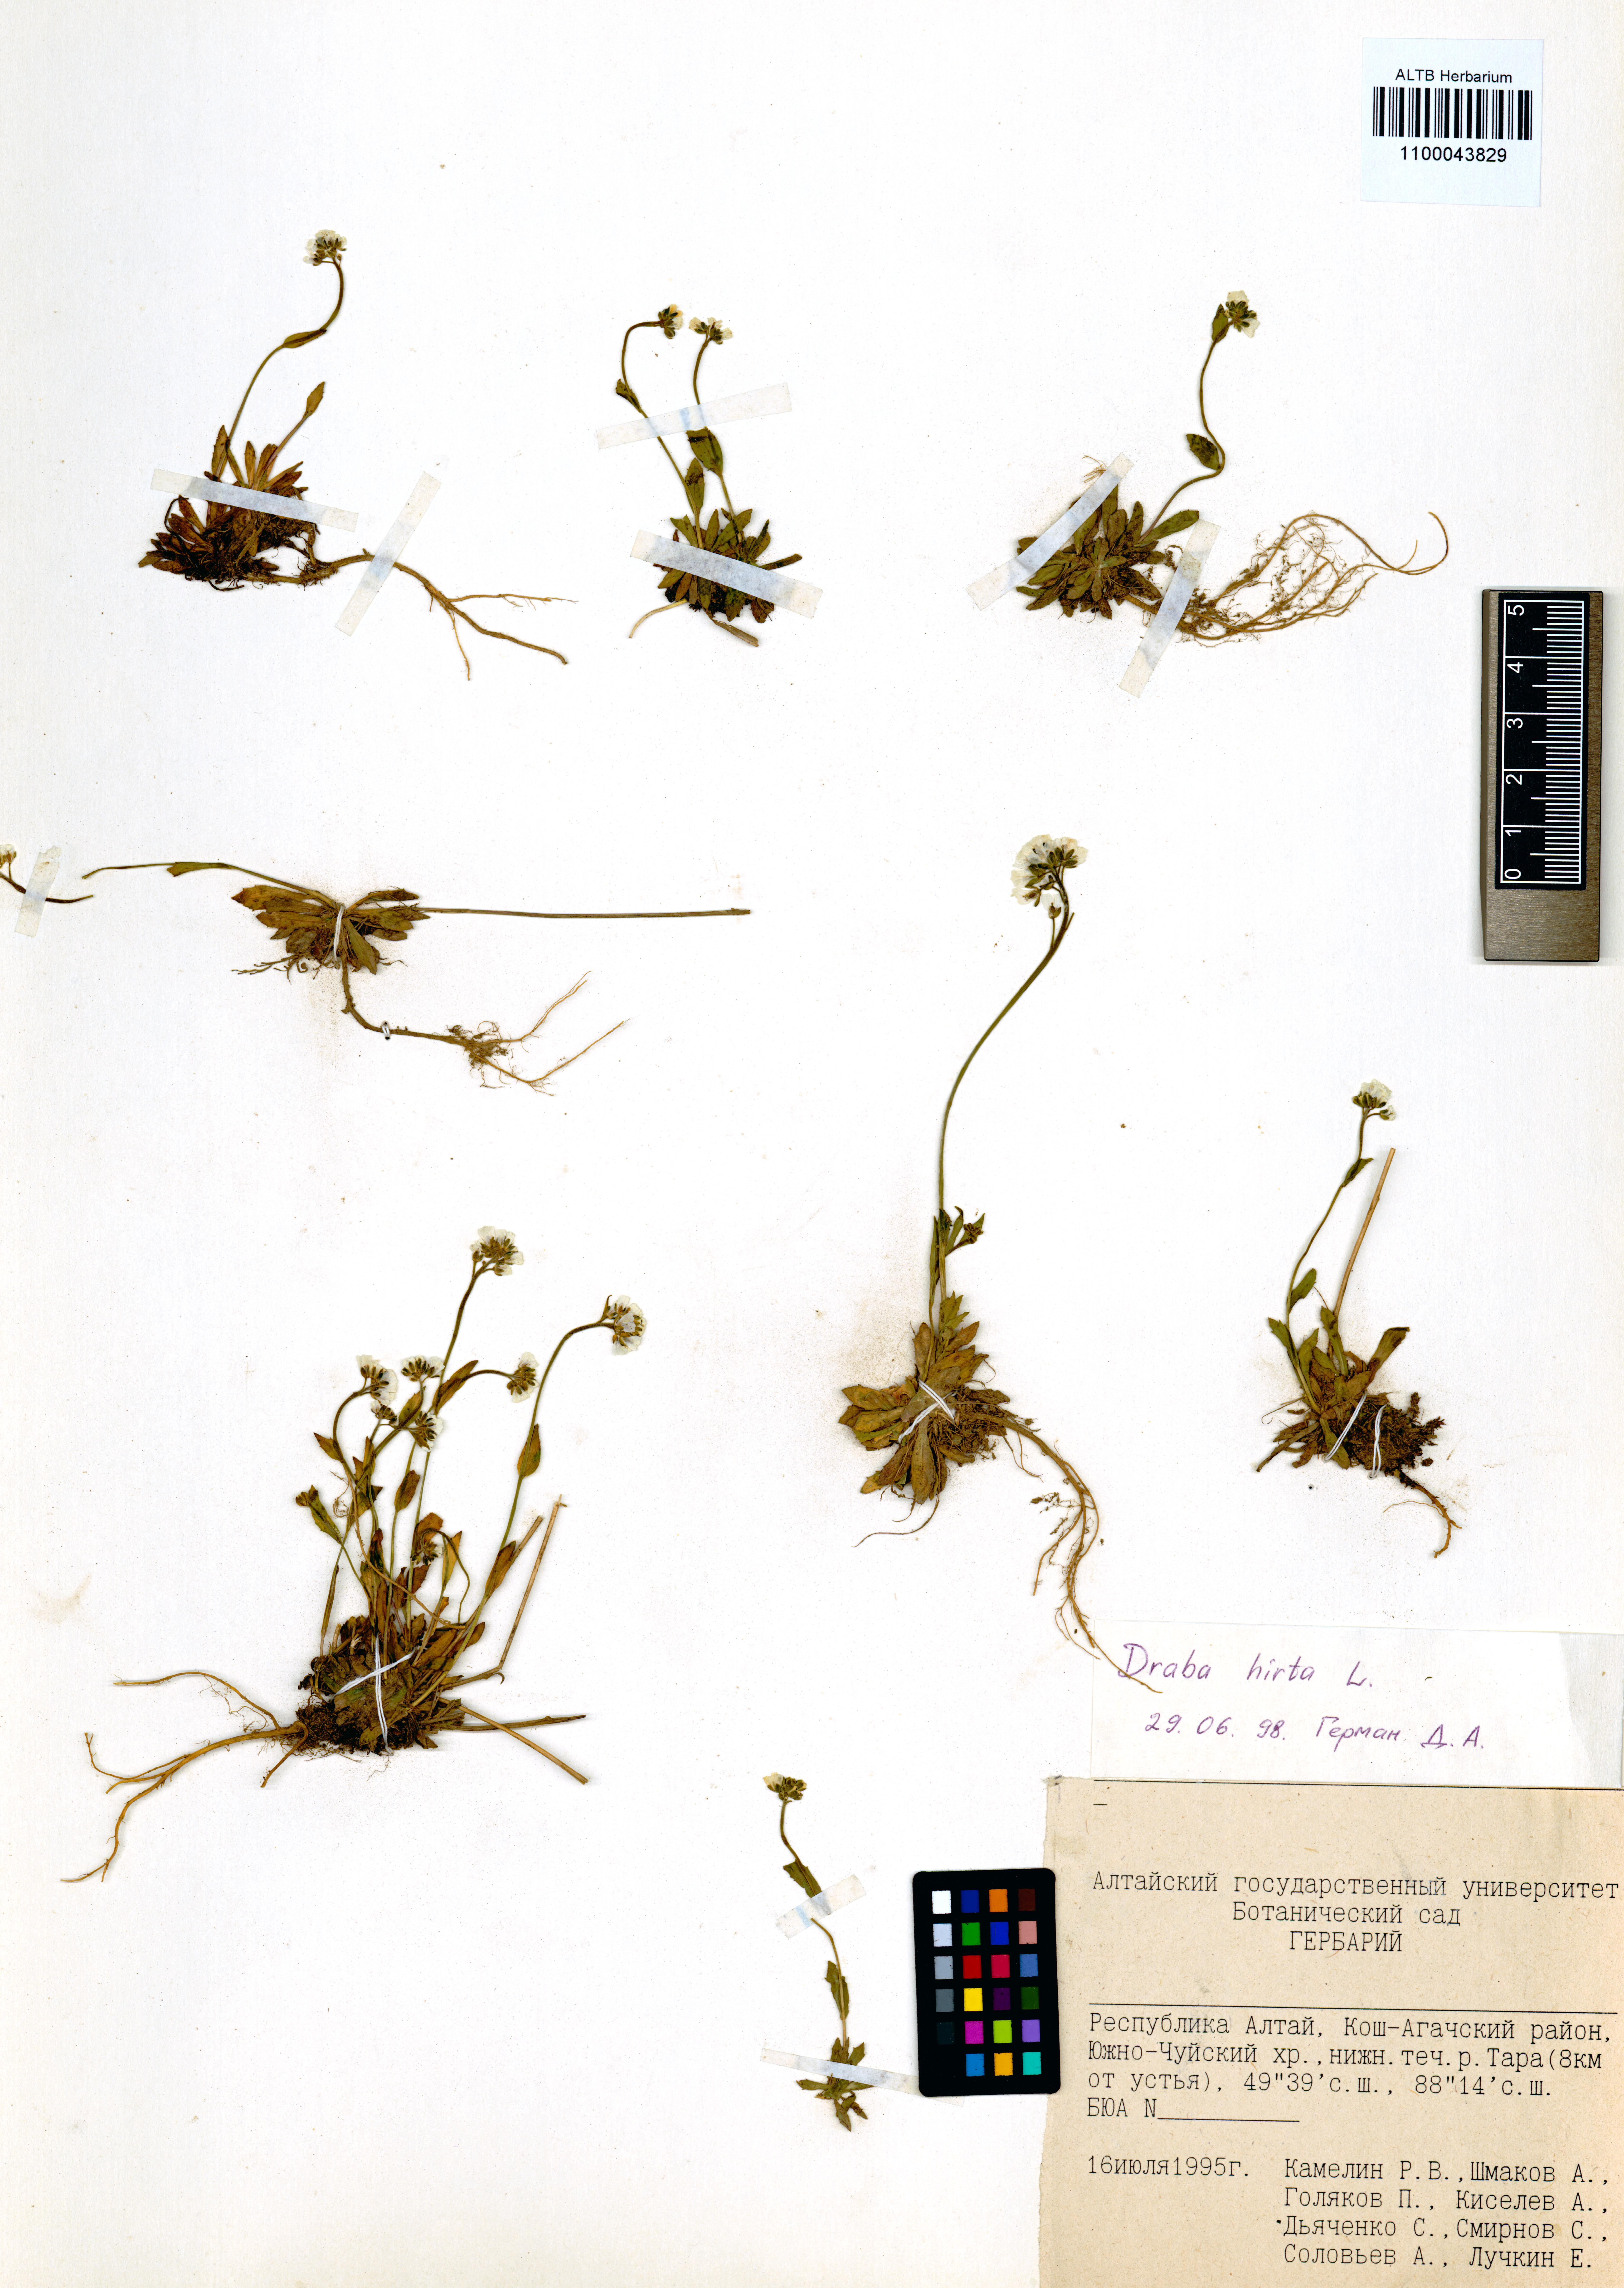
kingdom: Plantae
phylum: Tracheophyta
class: Magnoliopsida
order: Brassicales
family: Brassicaceae
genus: Draba
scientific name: Draba glabella
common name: Glaucous draba
